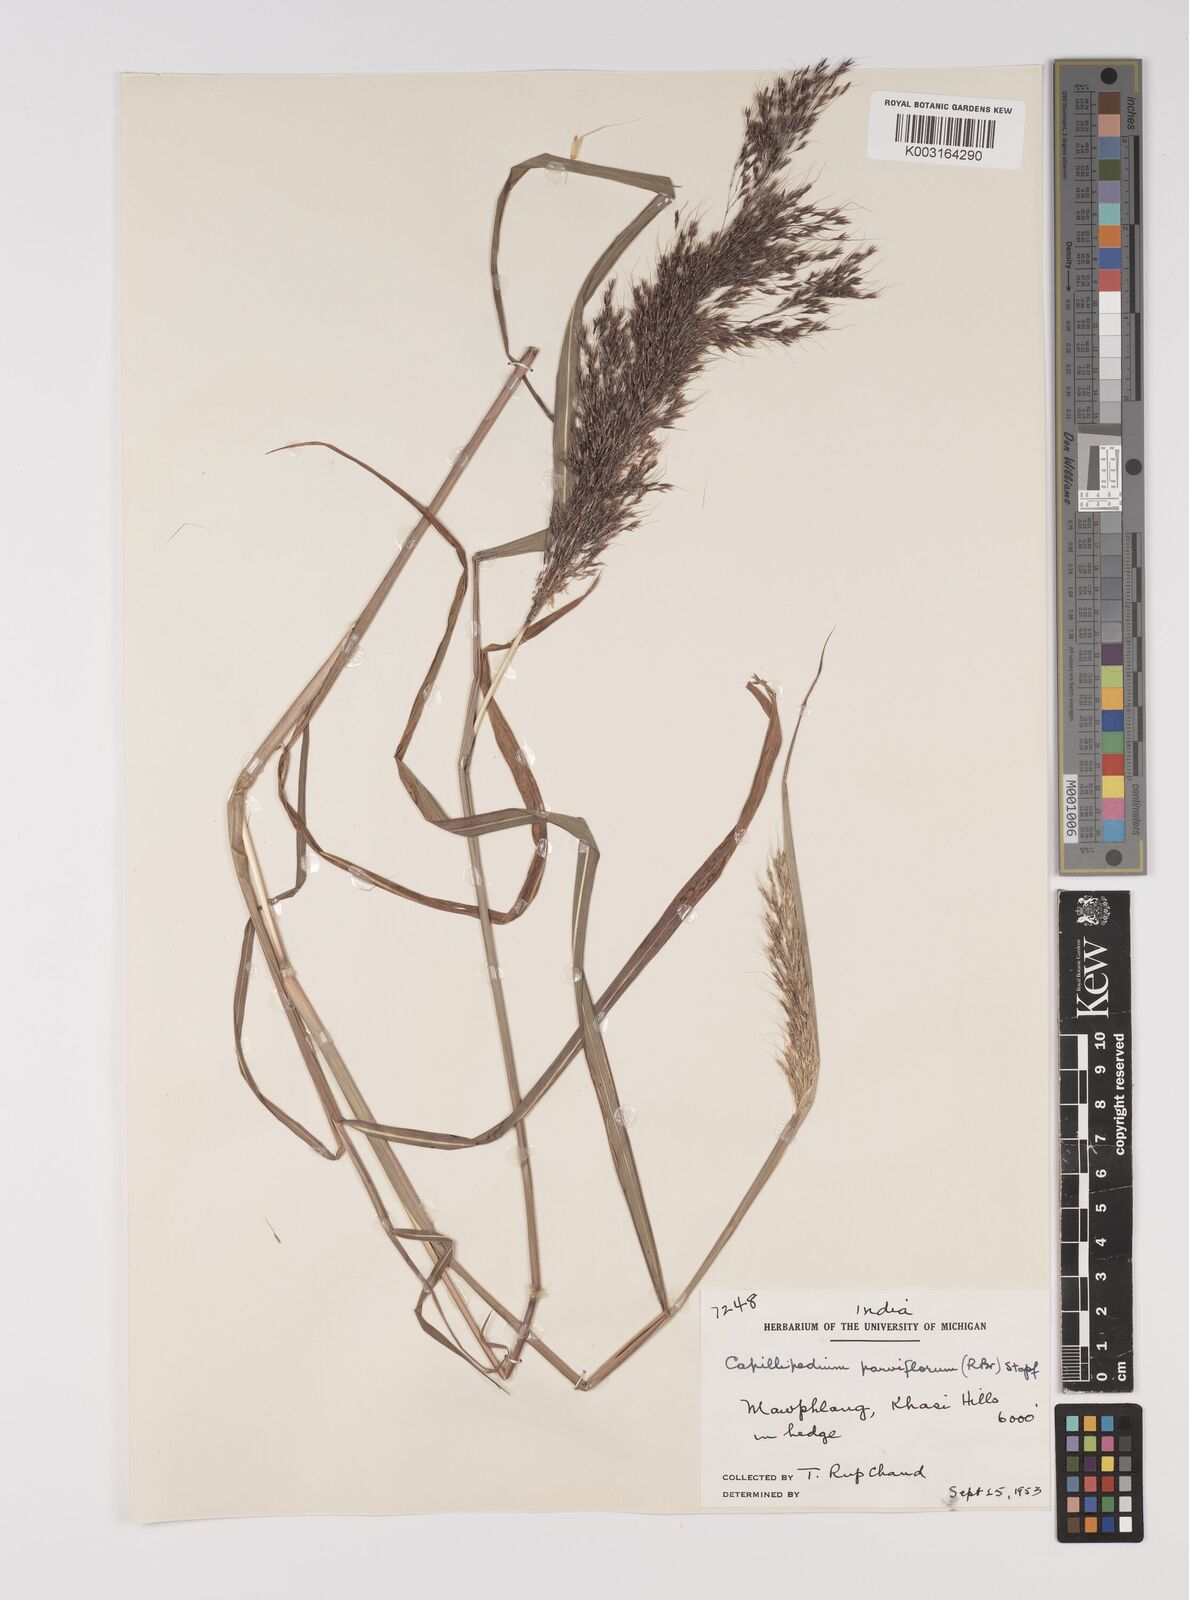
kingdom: Plantae
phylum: Tracheophyta
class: Liliopsida
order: Poales
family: Poaceae
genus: Capillipedium
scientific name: Capillipedium parviflorum
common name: Golden-beard
